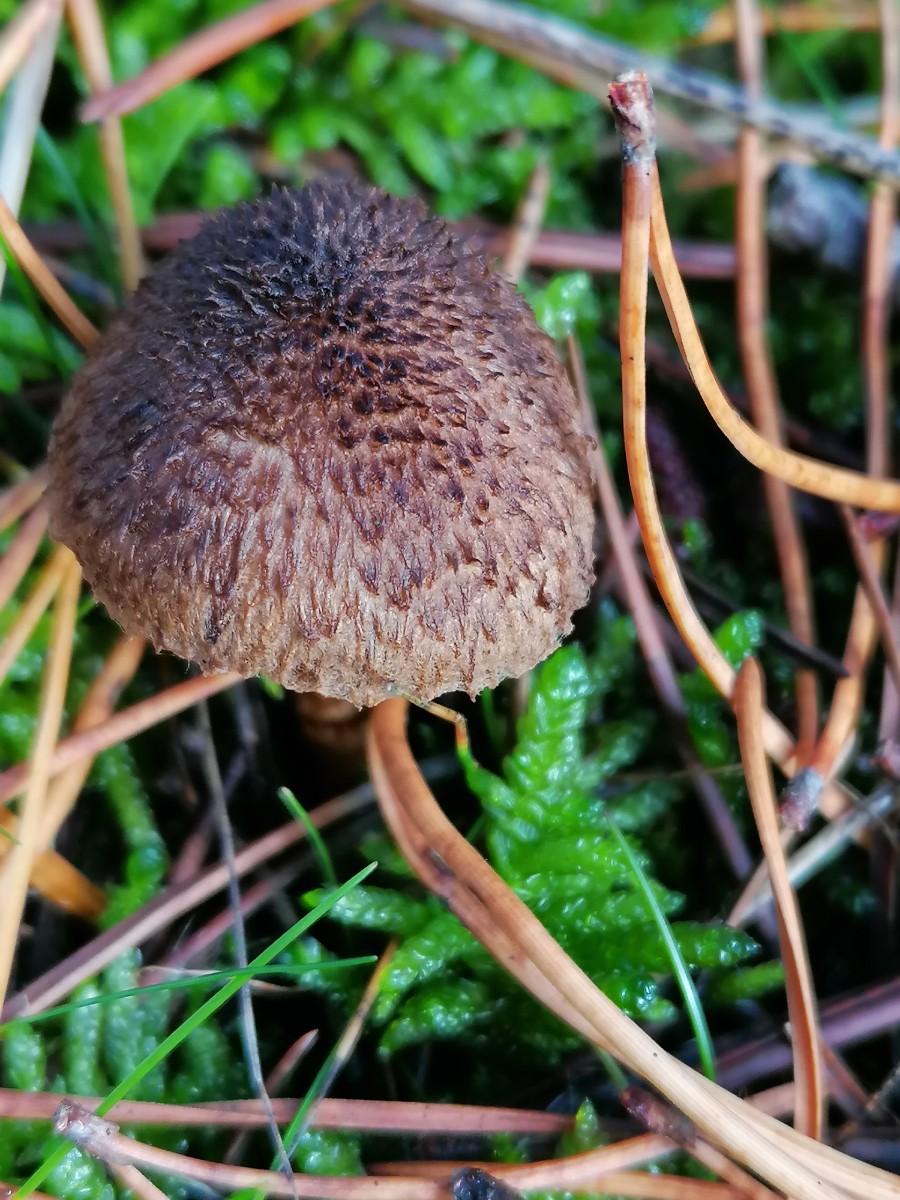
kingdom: Fungi
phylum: Basidiomycota
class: Agaricomycetes
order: Agaricales
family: Inocybaceae
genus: Inocybe
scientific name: Inocybe
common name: trævlhat
